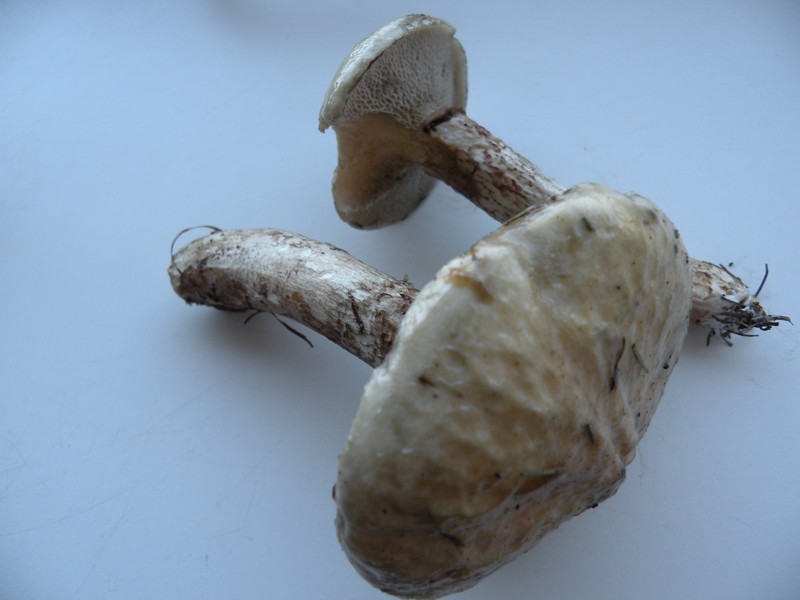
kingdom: Fungi
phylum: Basidiomycota
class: Agaricomycetes
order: Boletales
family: Suillaceae
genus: Suillus
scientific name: Suillus viscidus
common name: olivengrå slimrørhat
